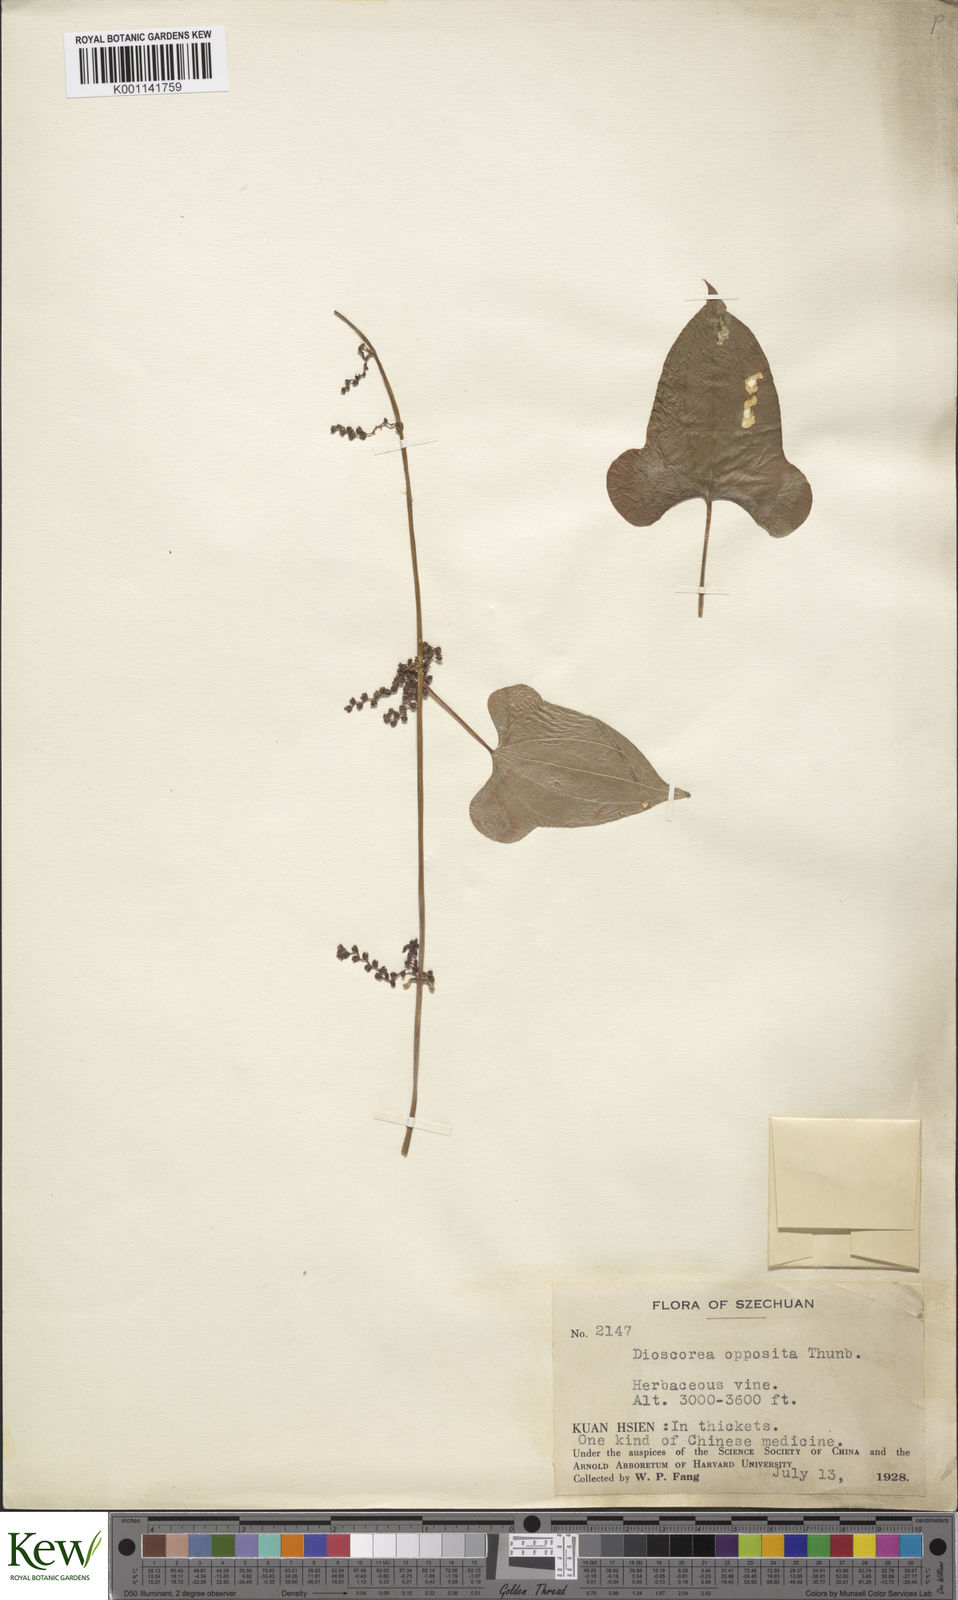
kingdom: Plantae
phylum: Tracheophyta
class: Liliopsida
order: Dioscoreales
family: Dioscoreaceae
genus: Dioscorea
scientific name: Dioscorea oppositifolia
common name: Chinese yam
